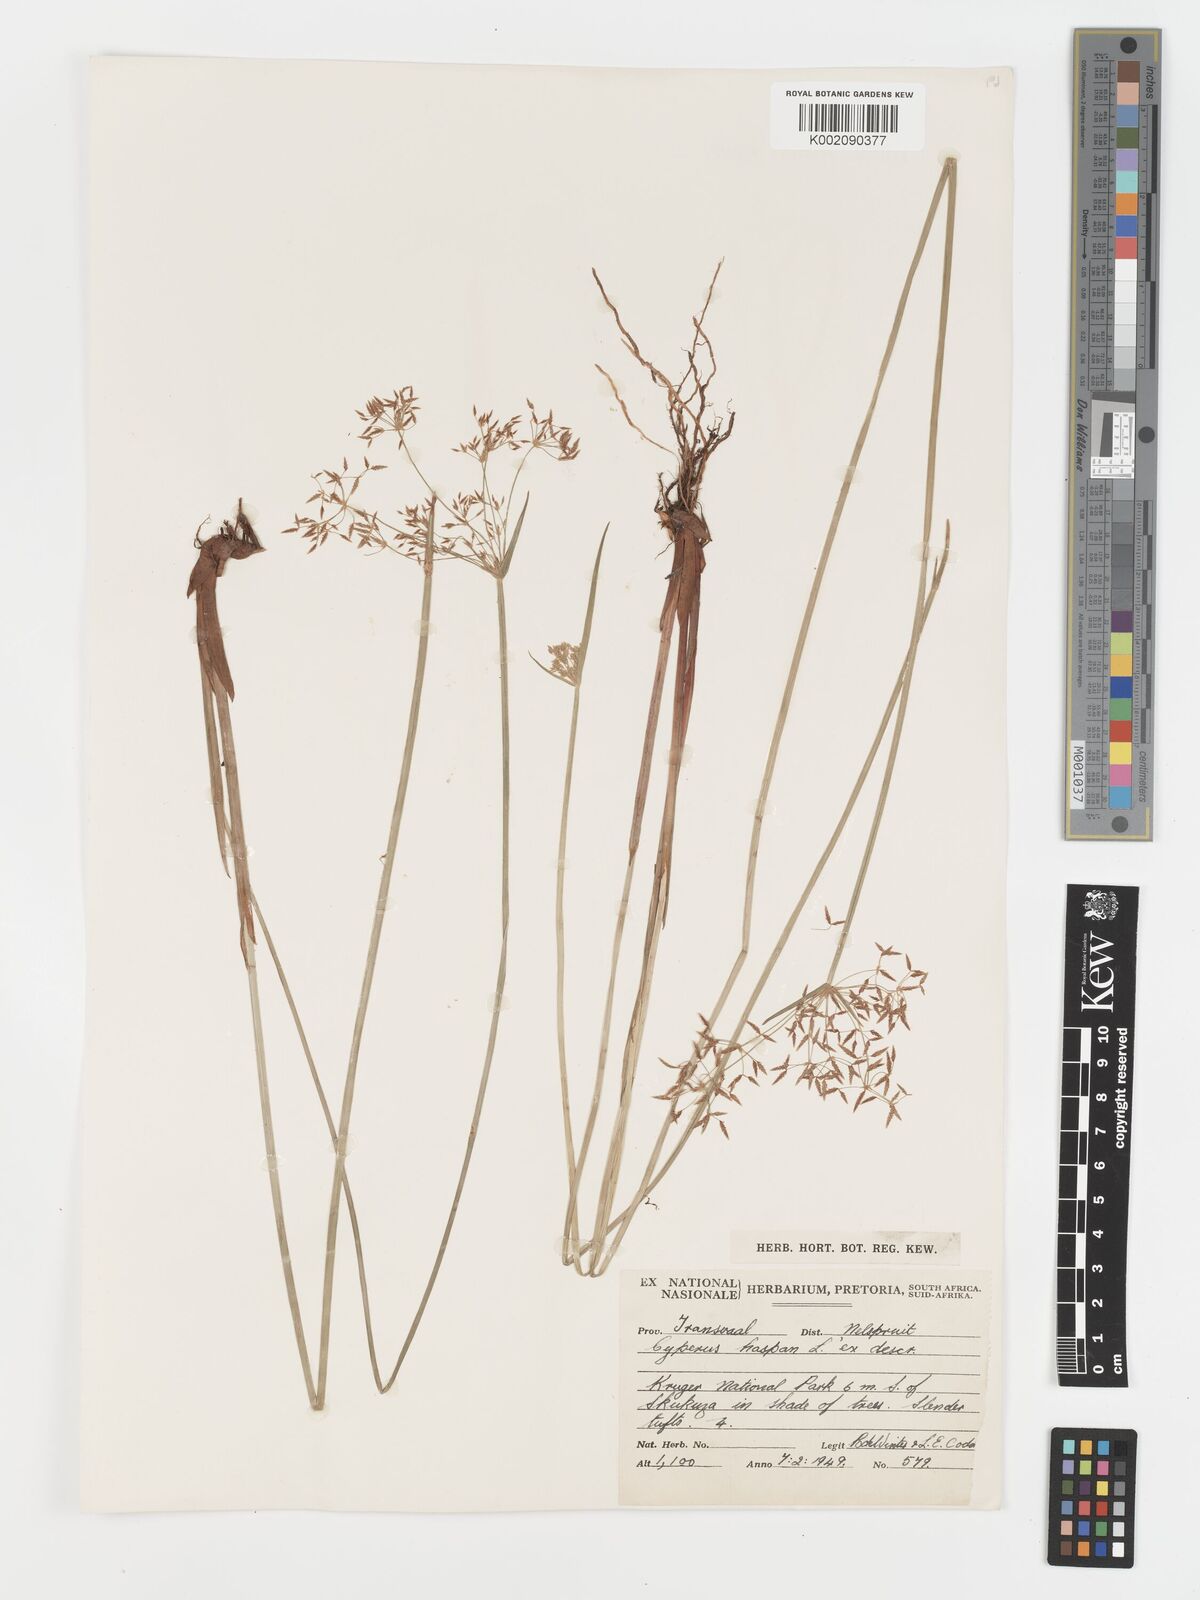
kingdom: Plantae
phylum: Tracheophyta
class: Liliopsida
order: Poales
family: Cyperaceae
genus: Cyperus
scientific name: Cyperus haspan
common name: Haspan flatsedge
